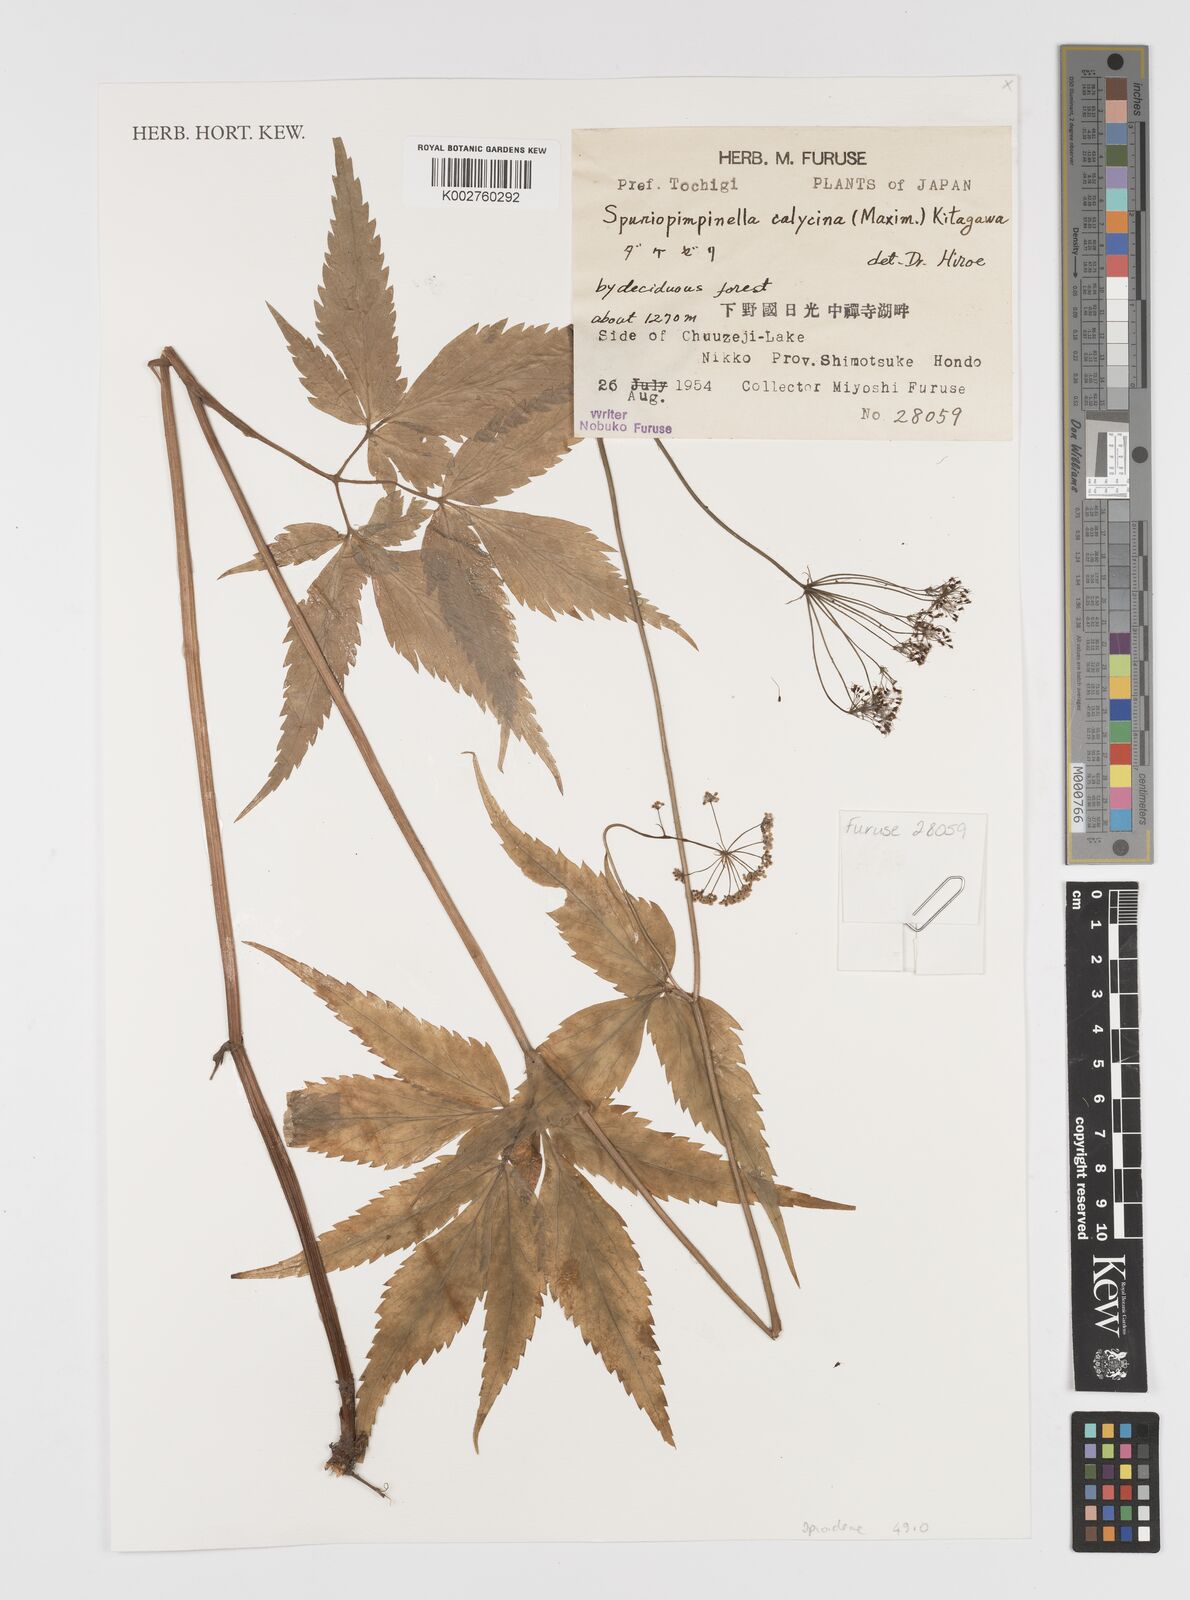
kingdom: Plantae
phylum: Tracheophyta
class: Magnoliopsida
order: Apiales
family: Apiaceae
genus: Spuriopimpinella
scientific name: Spuriopimpinella calycina
